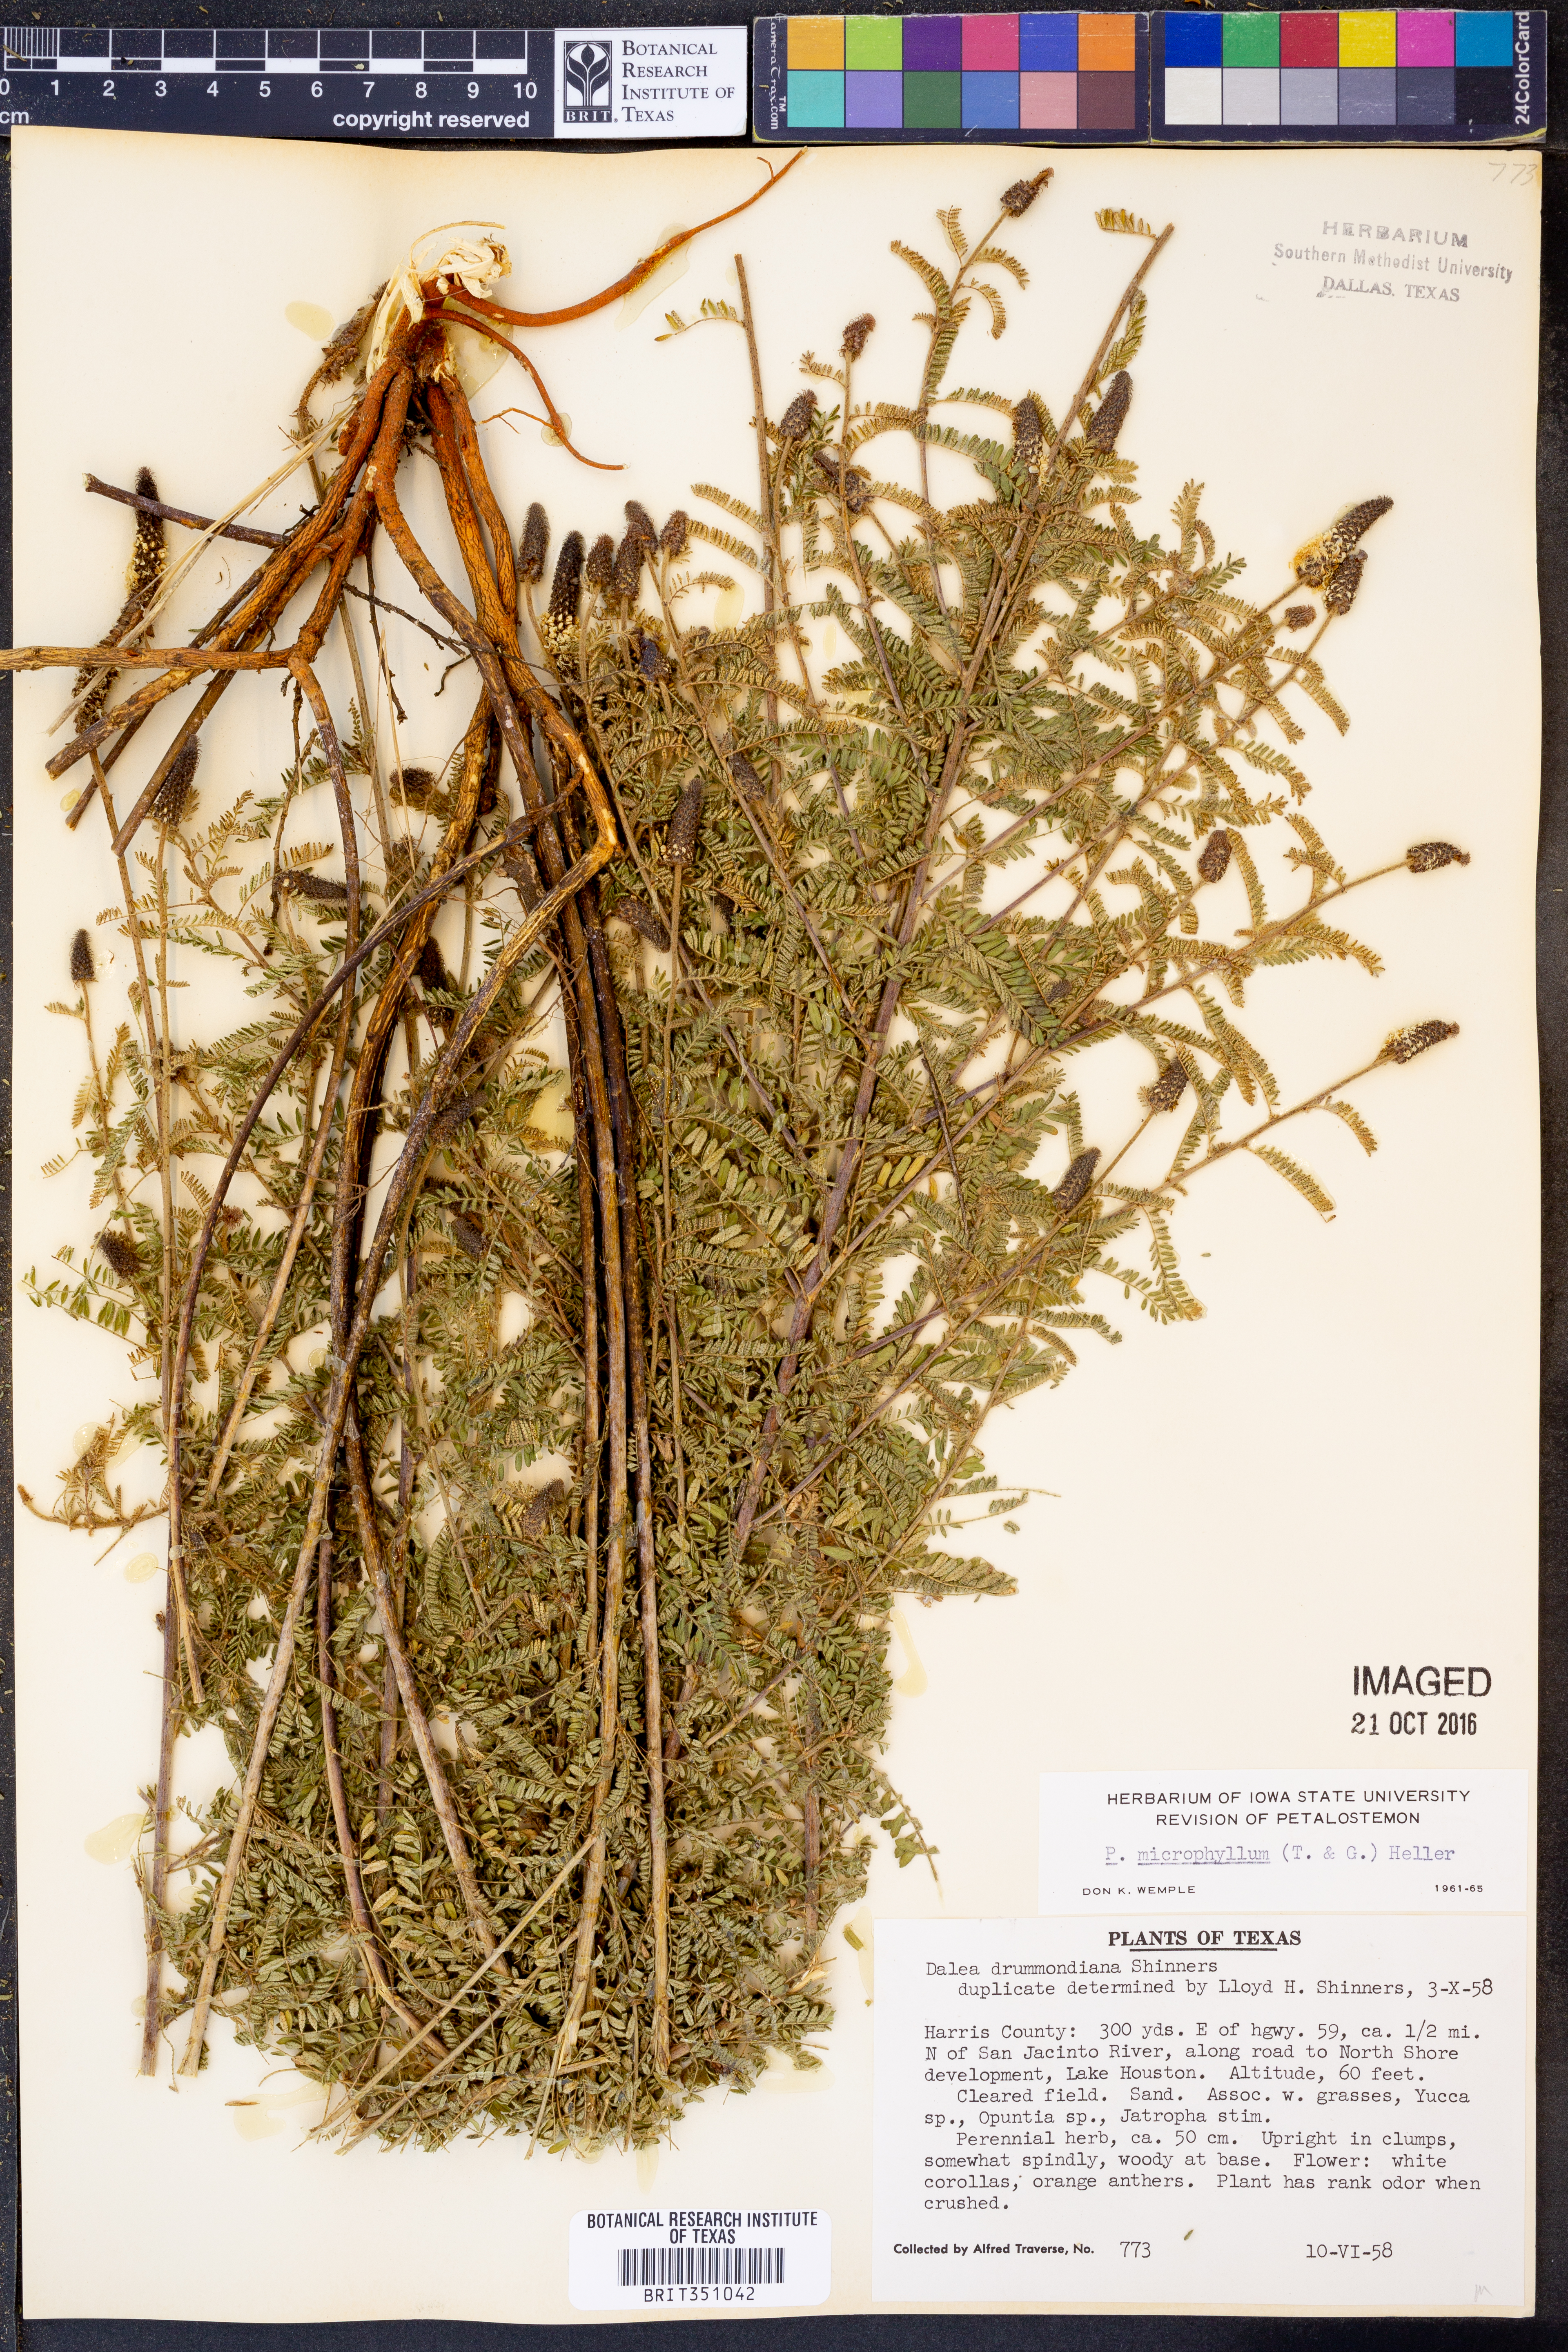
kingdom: Plantae
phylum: Tracheophyta
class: Magnoliopsida
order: Fabales
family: Fabaceae
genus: Dalea
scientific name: Dalea drummondiana
